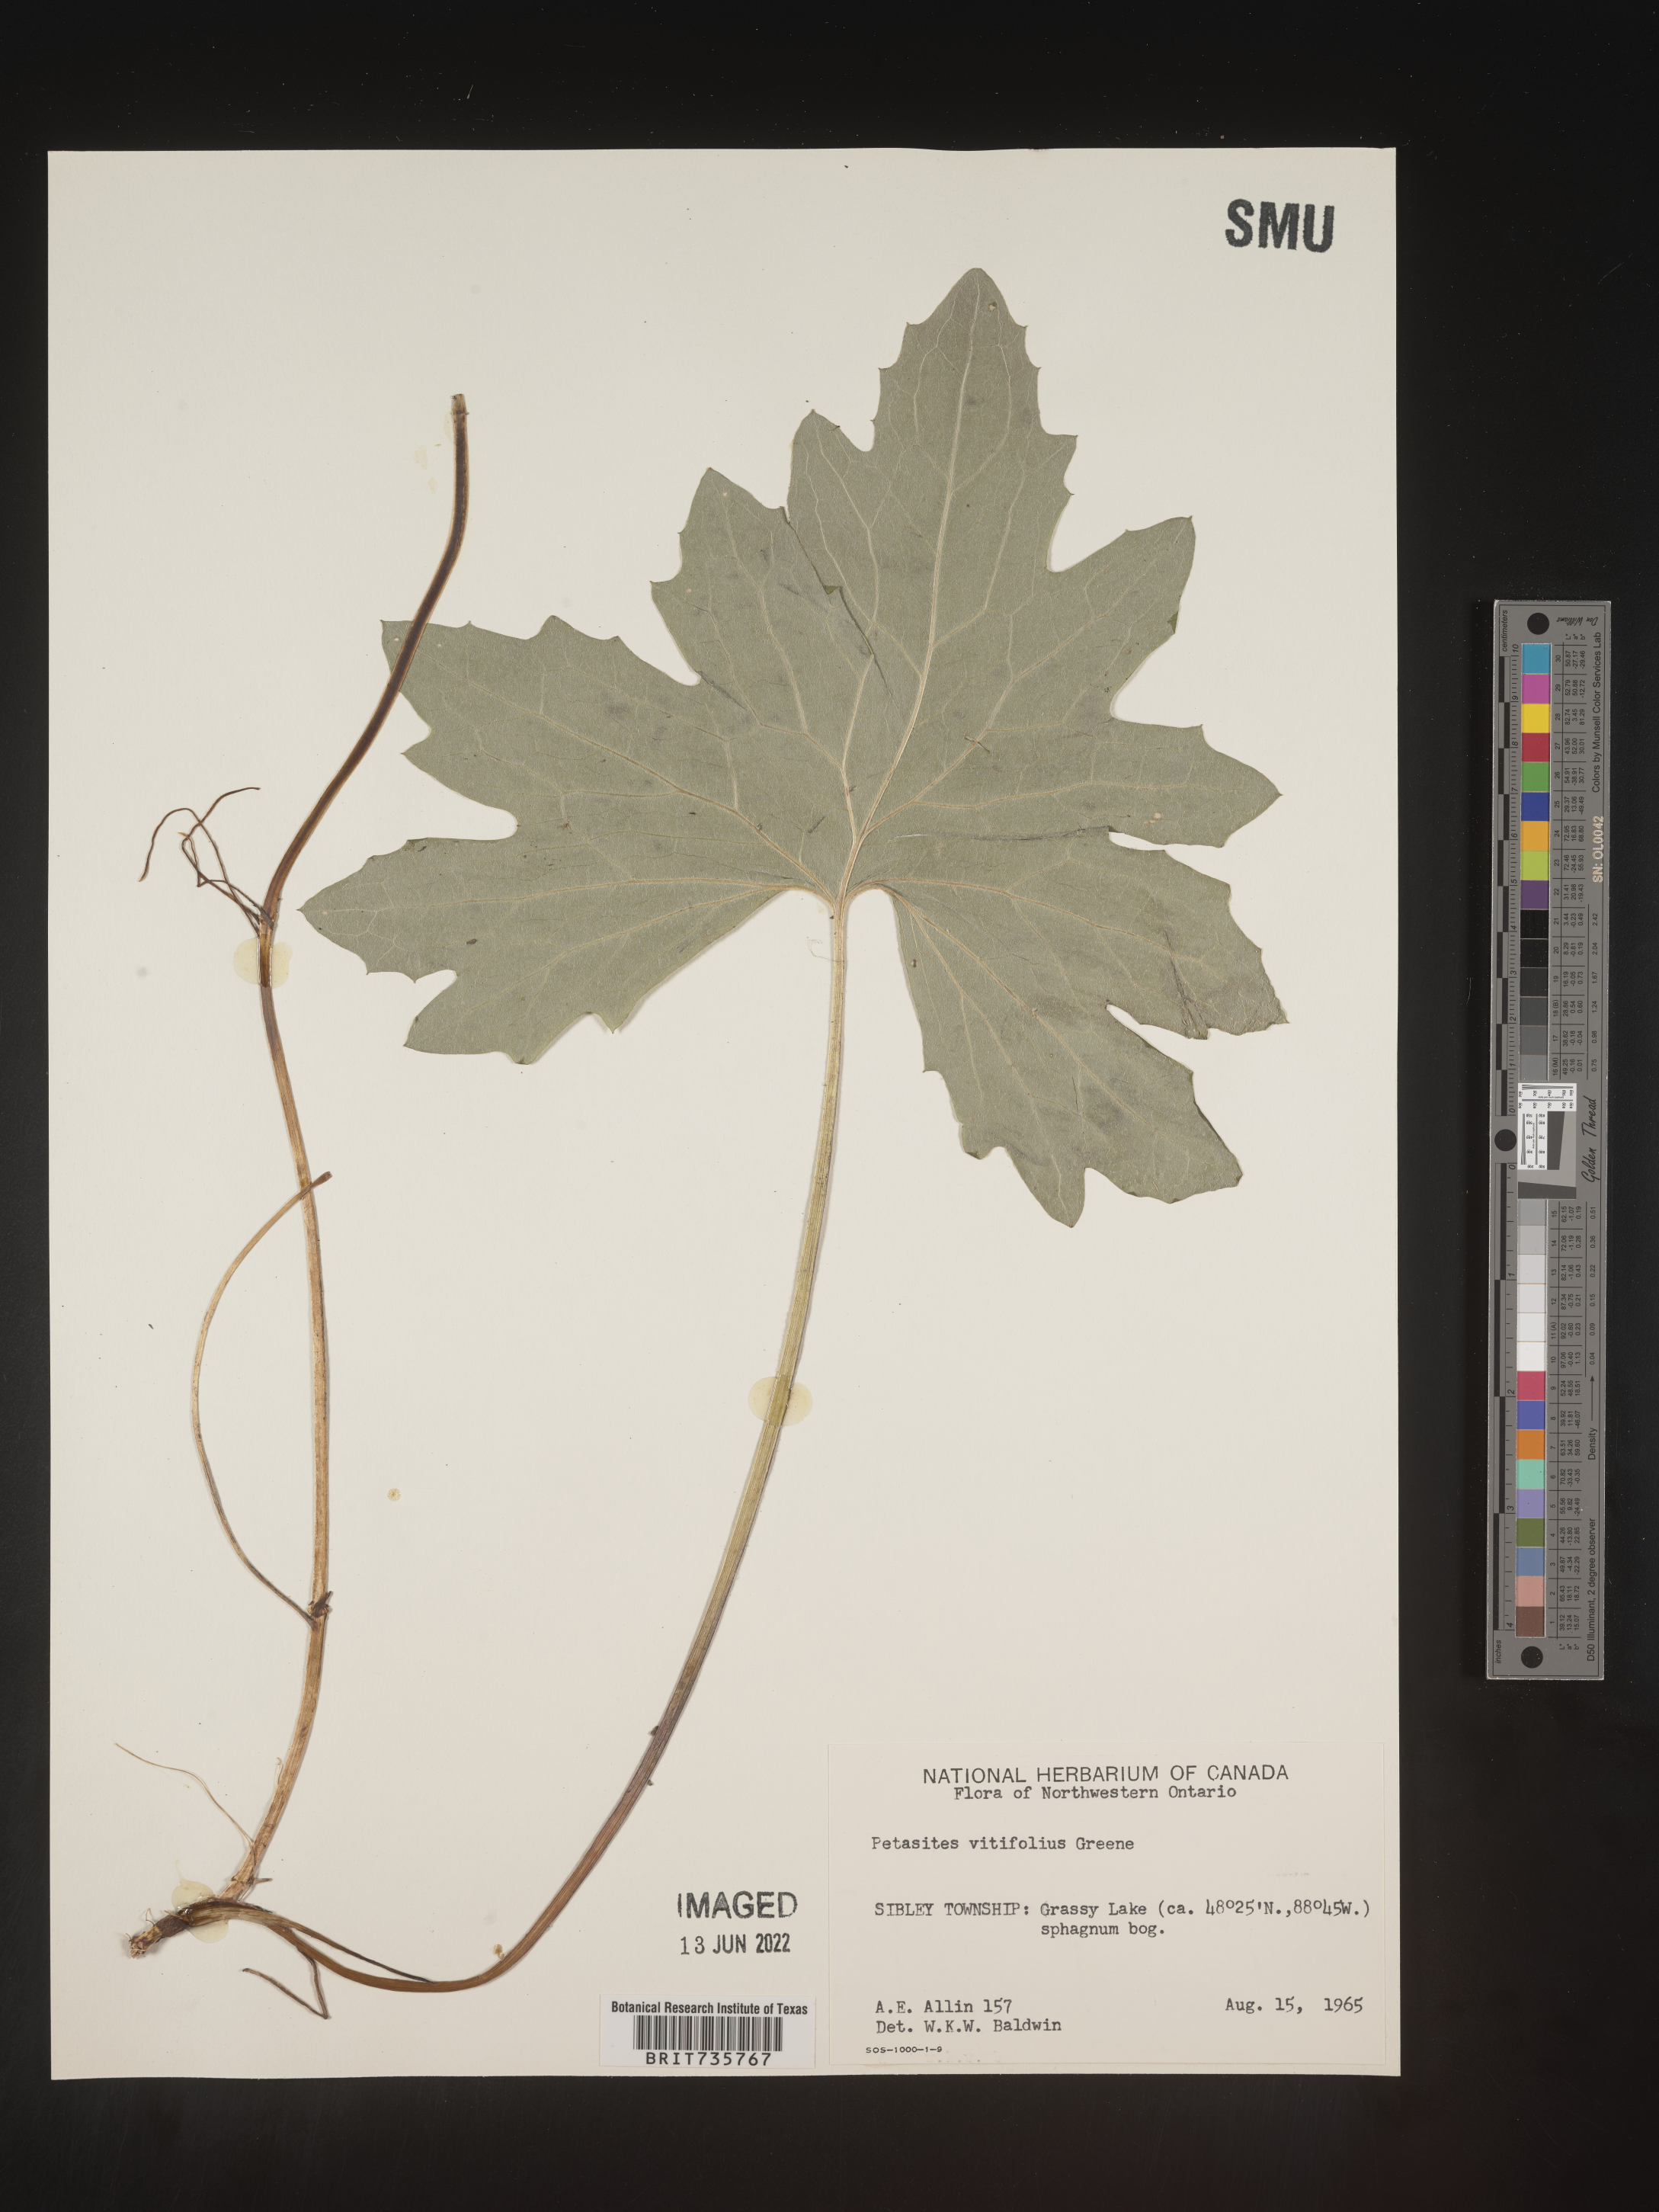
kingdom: Plantae
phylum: Tracheophyta
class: Magnoliopsida
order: Asterales
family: Asteraceae
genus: Petasites
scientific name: Petasites
